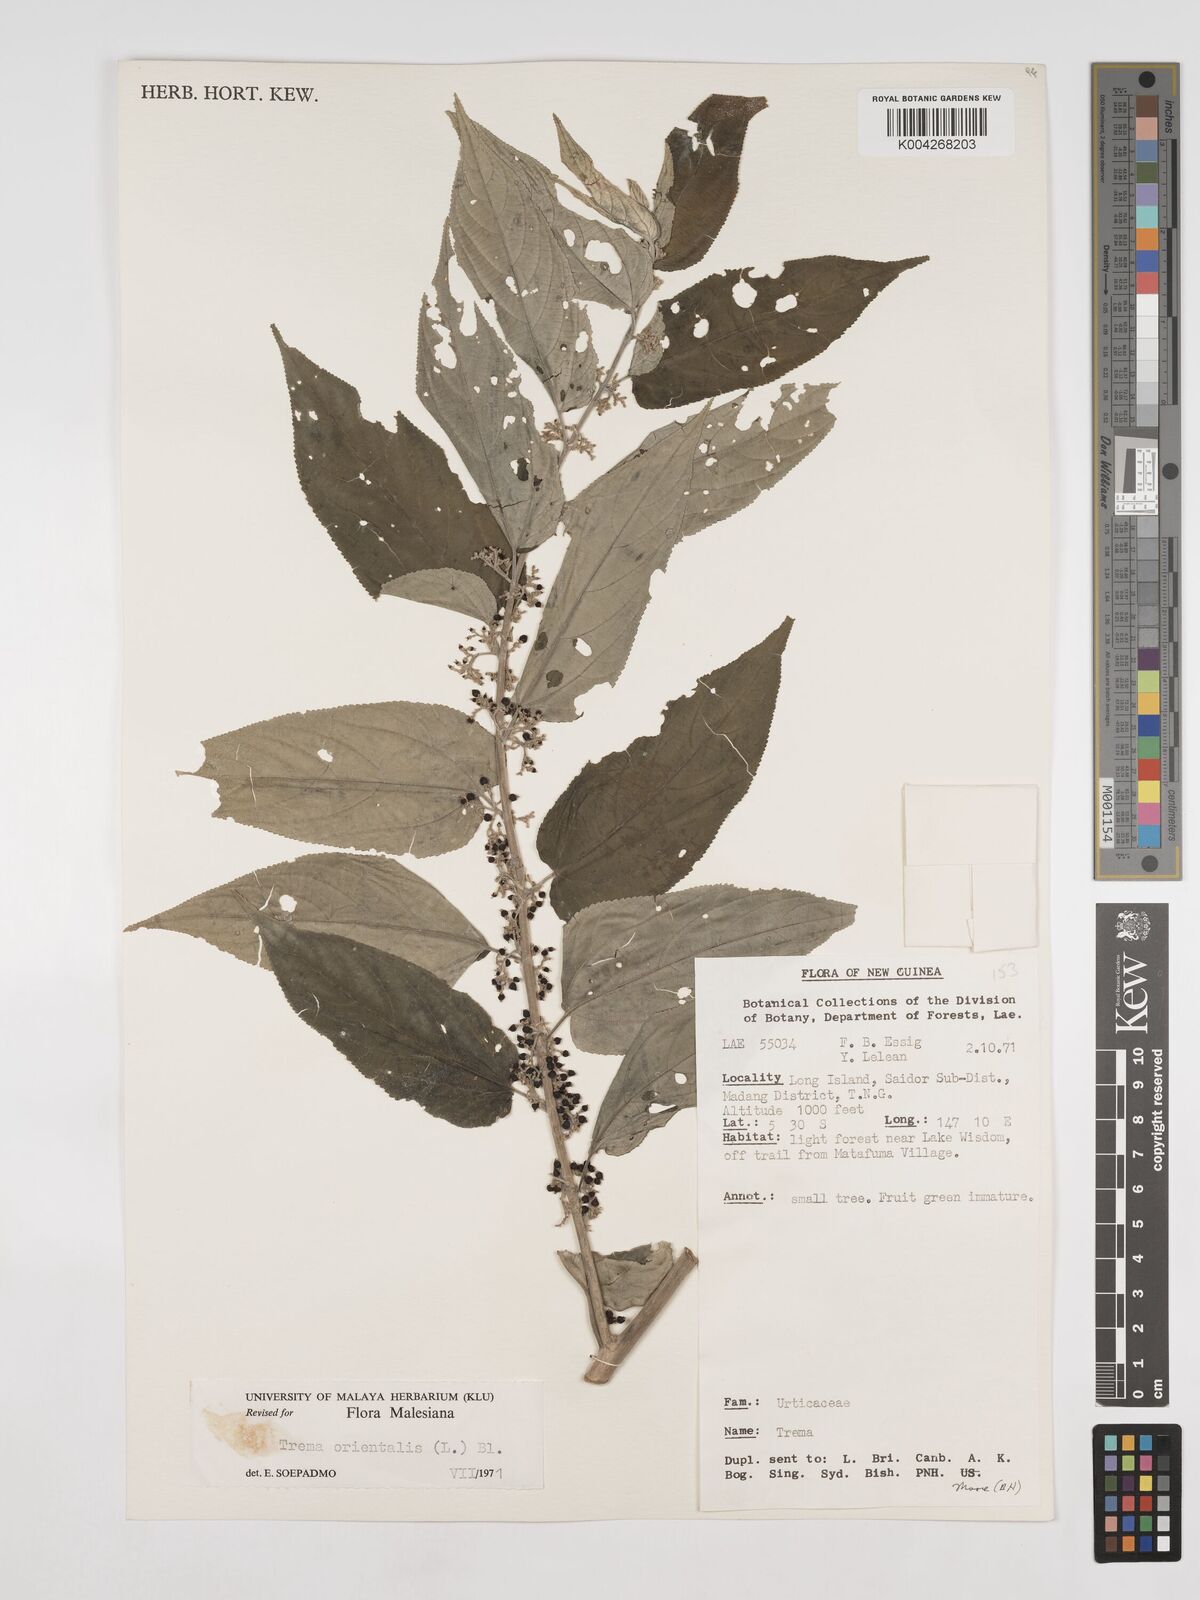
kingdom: Plantae
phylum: Tracheophyta
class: Magnoliopsida
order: Rosales
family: Cannabaceae
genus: Trema
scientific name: Trema orientale
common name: Indian charcoal tree
